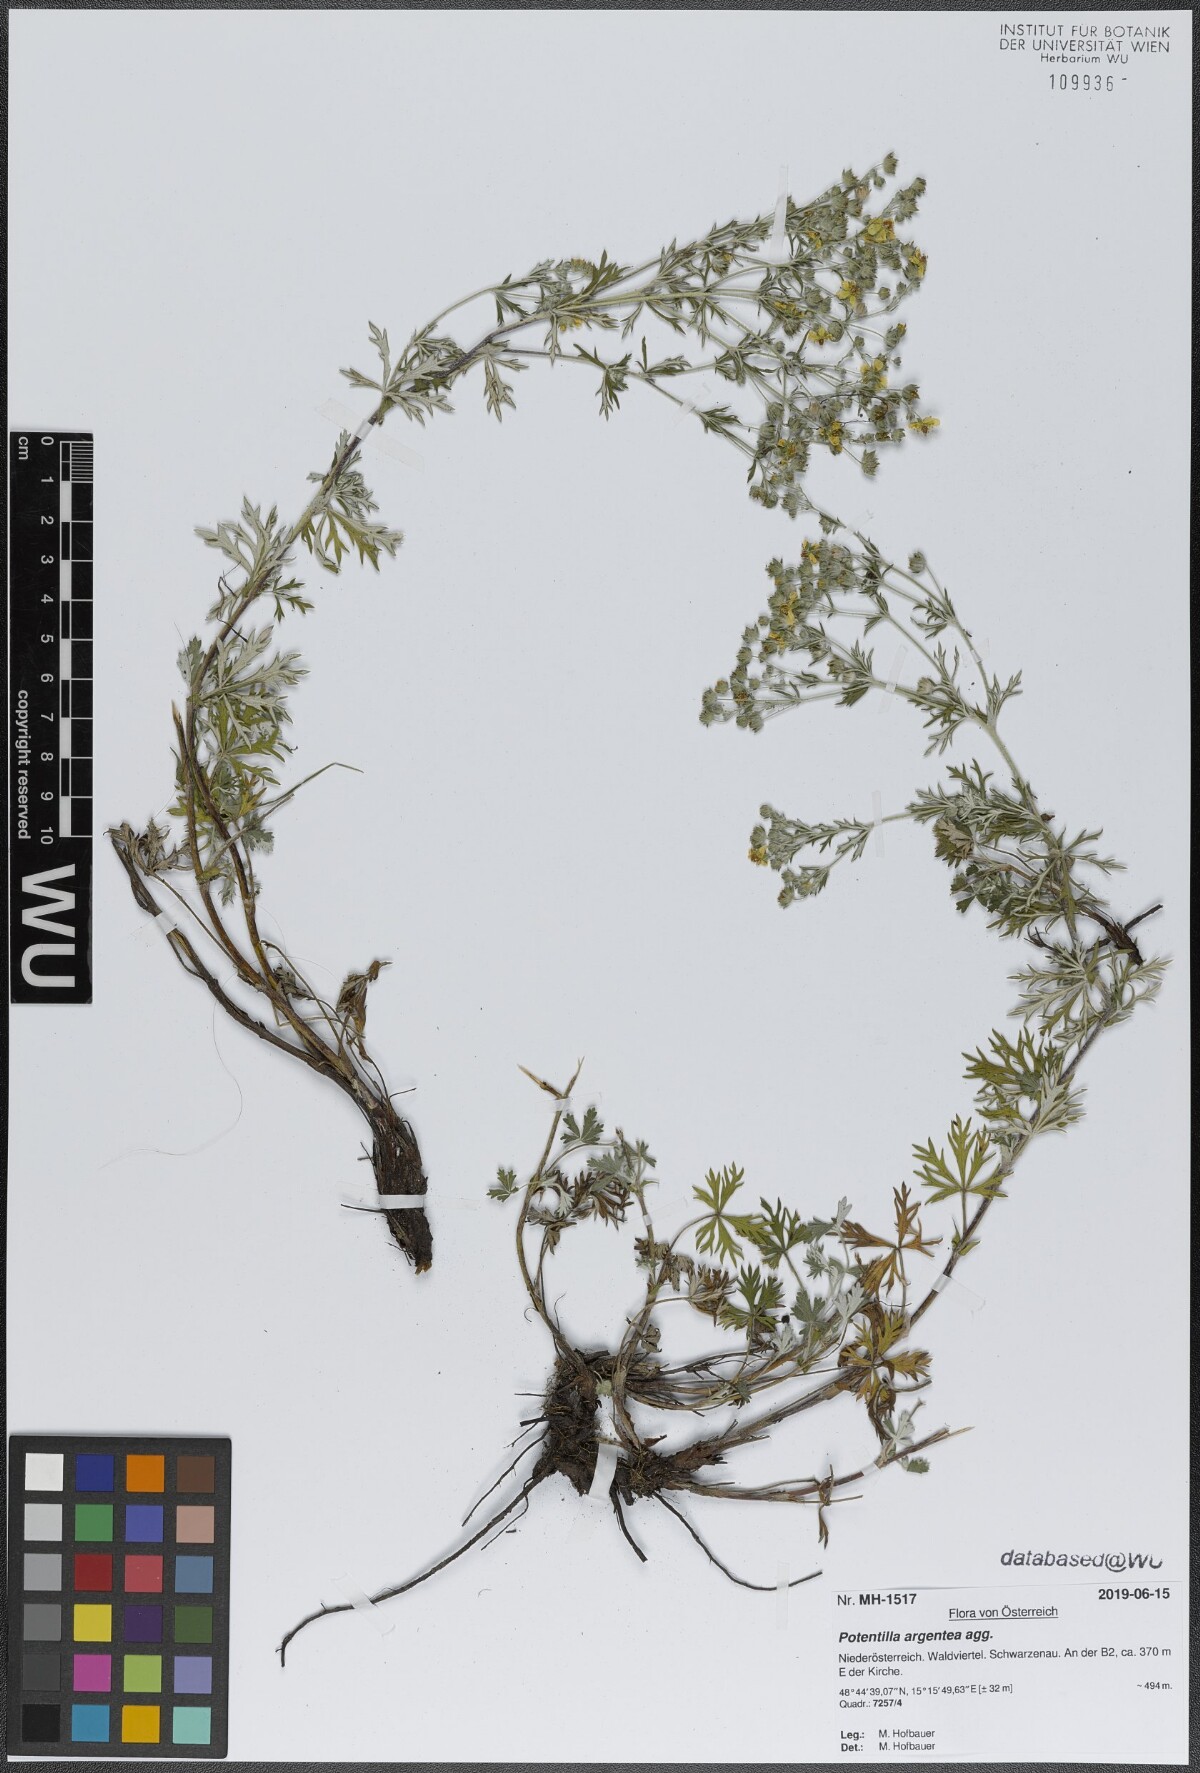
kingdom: Plantae
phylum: Tracheophyta
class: Magnoliopsida
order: Rosales
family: Rosaceae
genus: Potentilla
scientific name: Potentilla argentea
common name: Hoary cinquefoil
